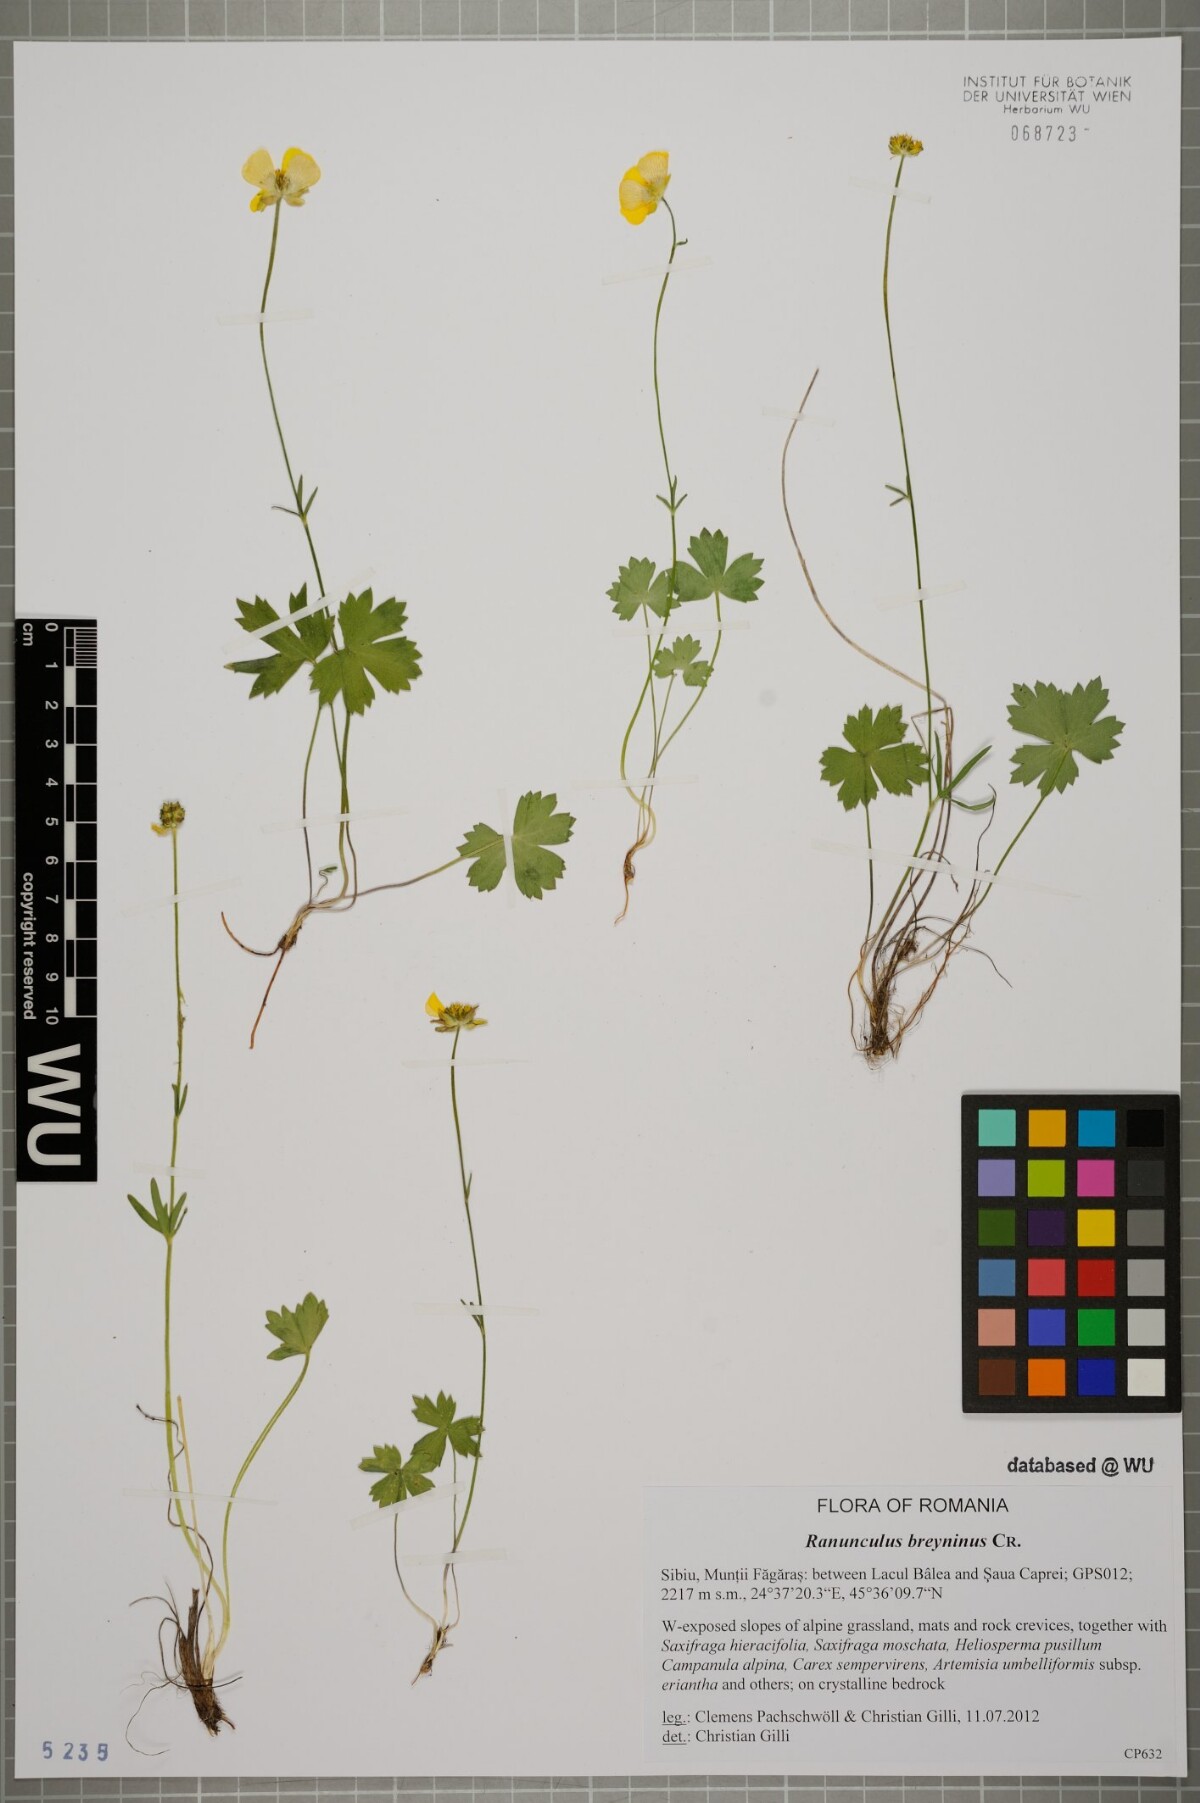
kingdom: Plantae
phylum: Tracheophyta
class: Magnoliopsida
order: Ranunculales
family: Ranunculaceae
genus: Ranunculus
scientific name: Ranunculus breyninus
